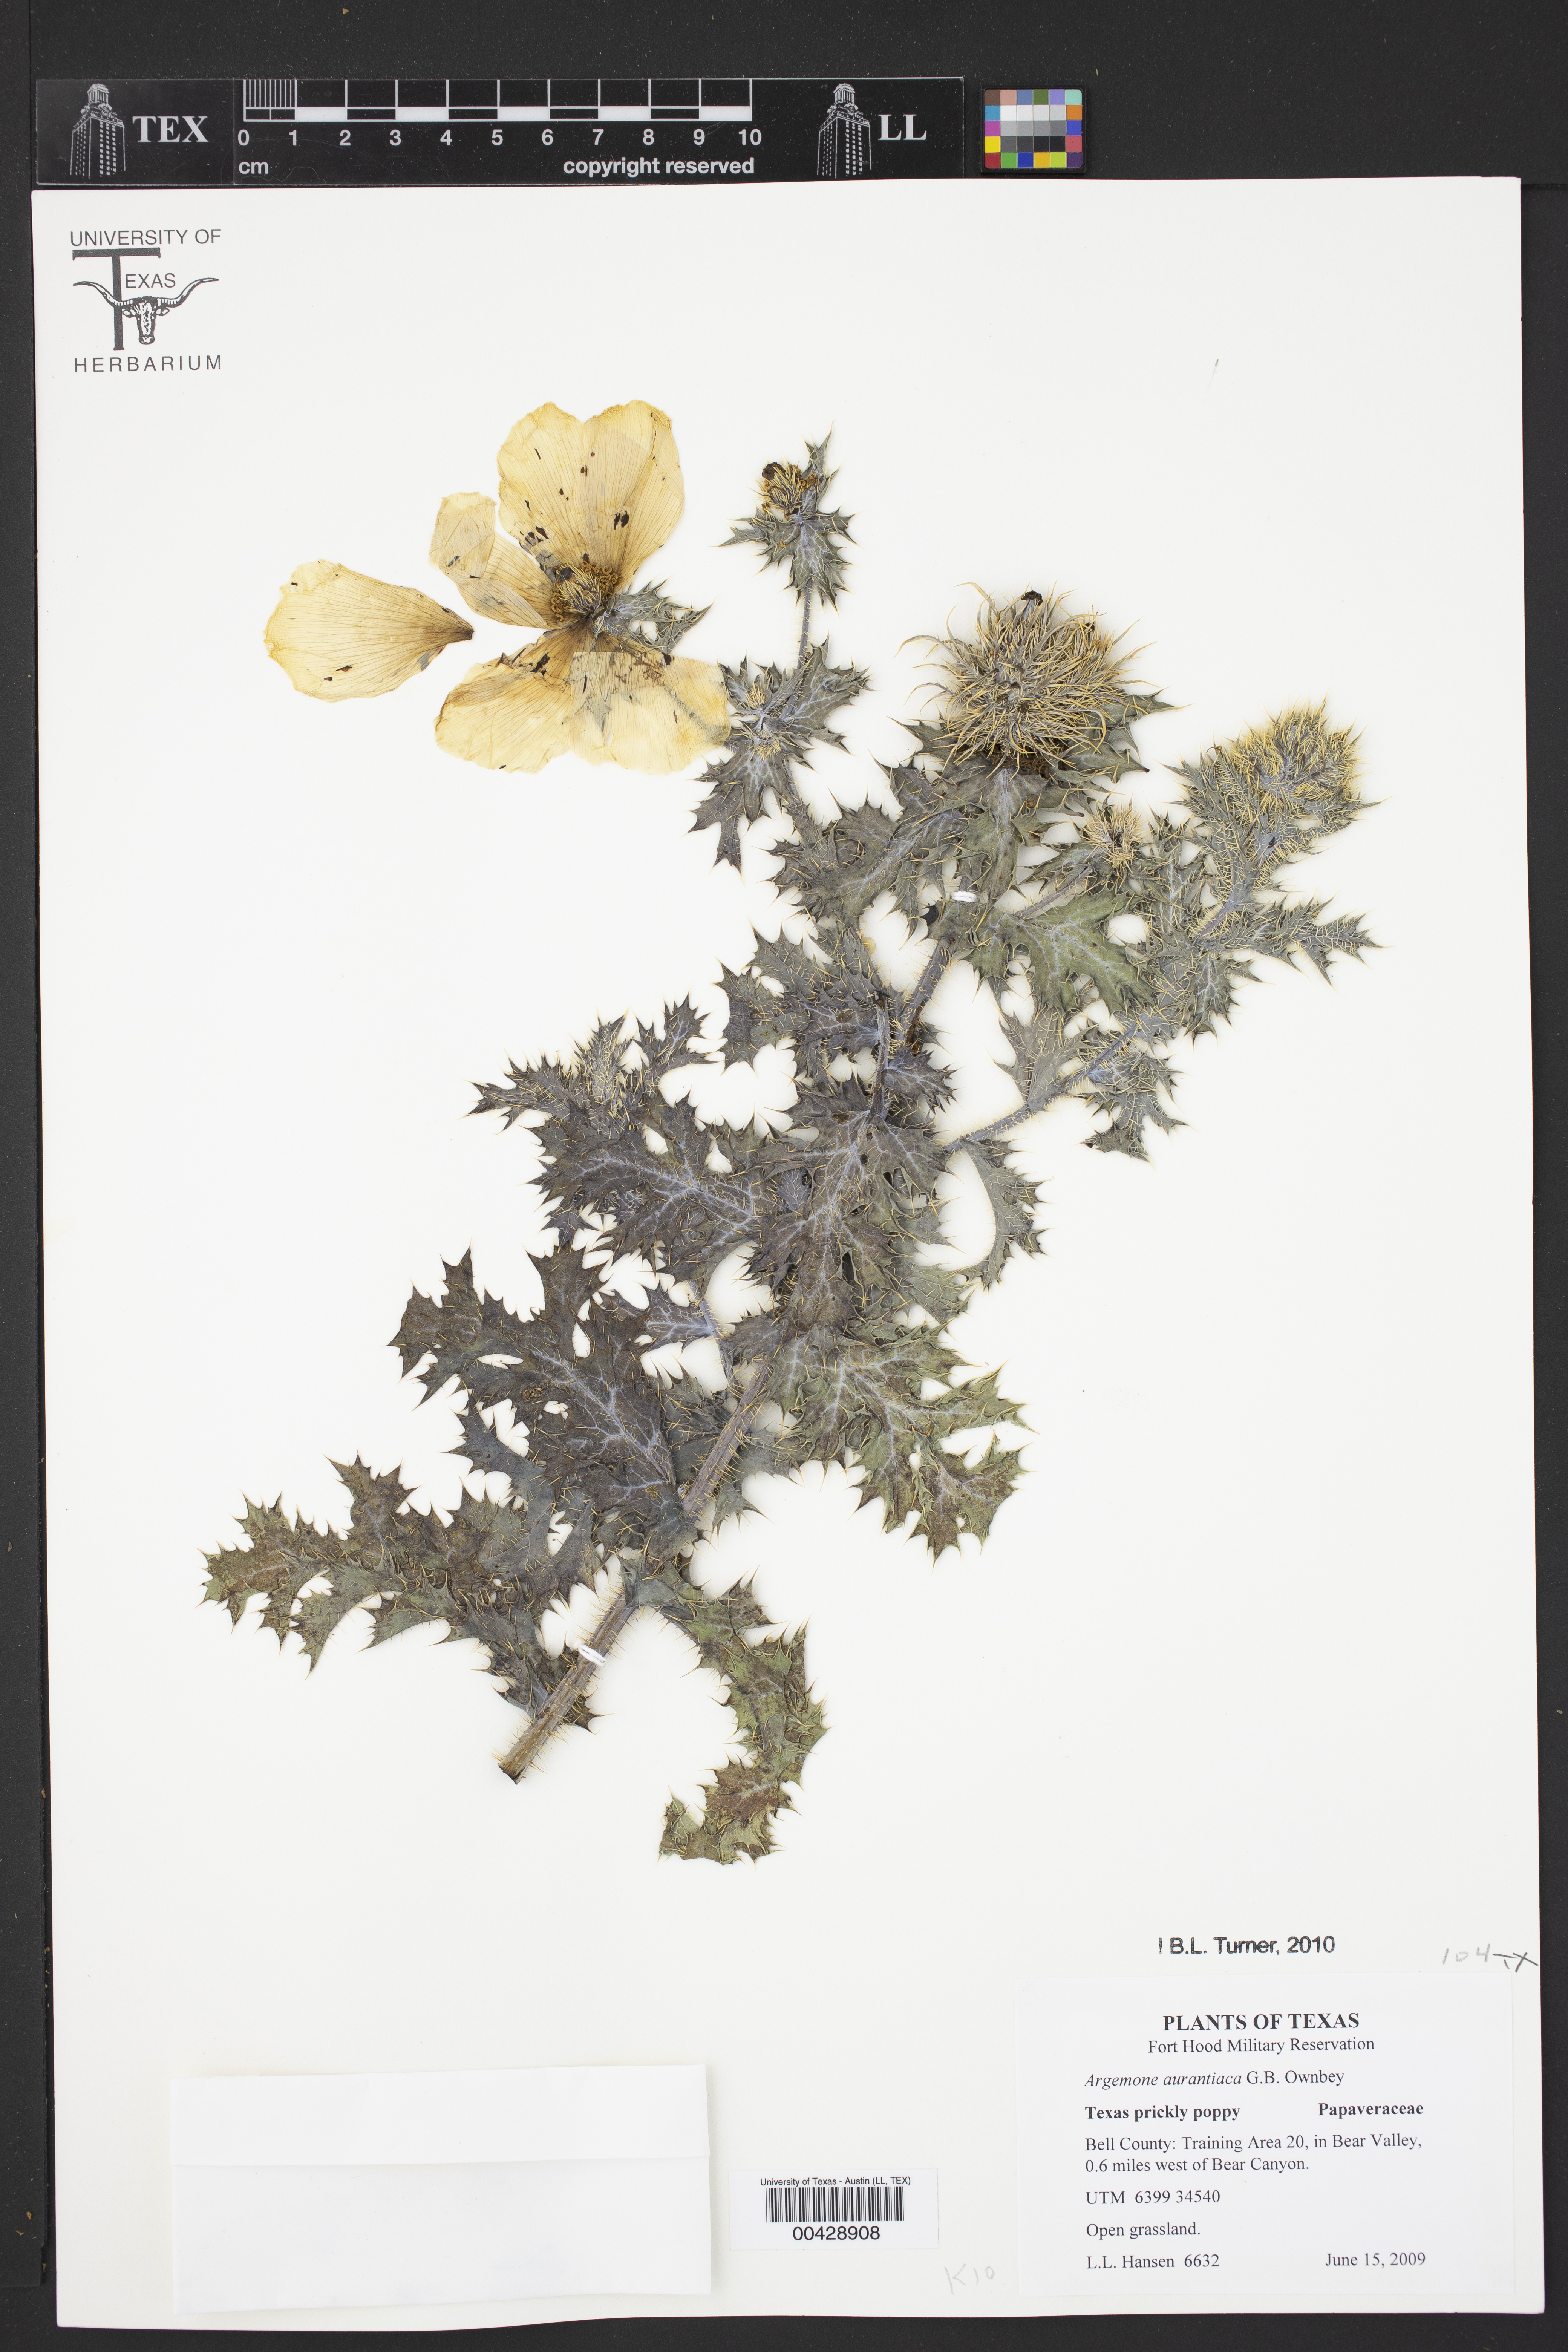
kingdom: Plantae
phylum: Tracheophyta
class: Magnoliopsida
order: Ranunculales
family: Papaveraceae
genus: Argemone
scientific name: Argemone aurantiaca
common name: Texas prickly-poppy
